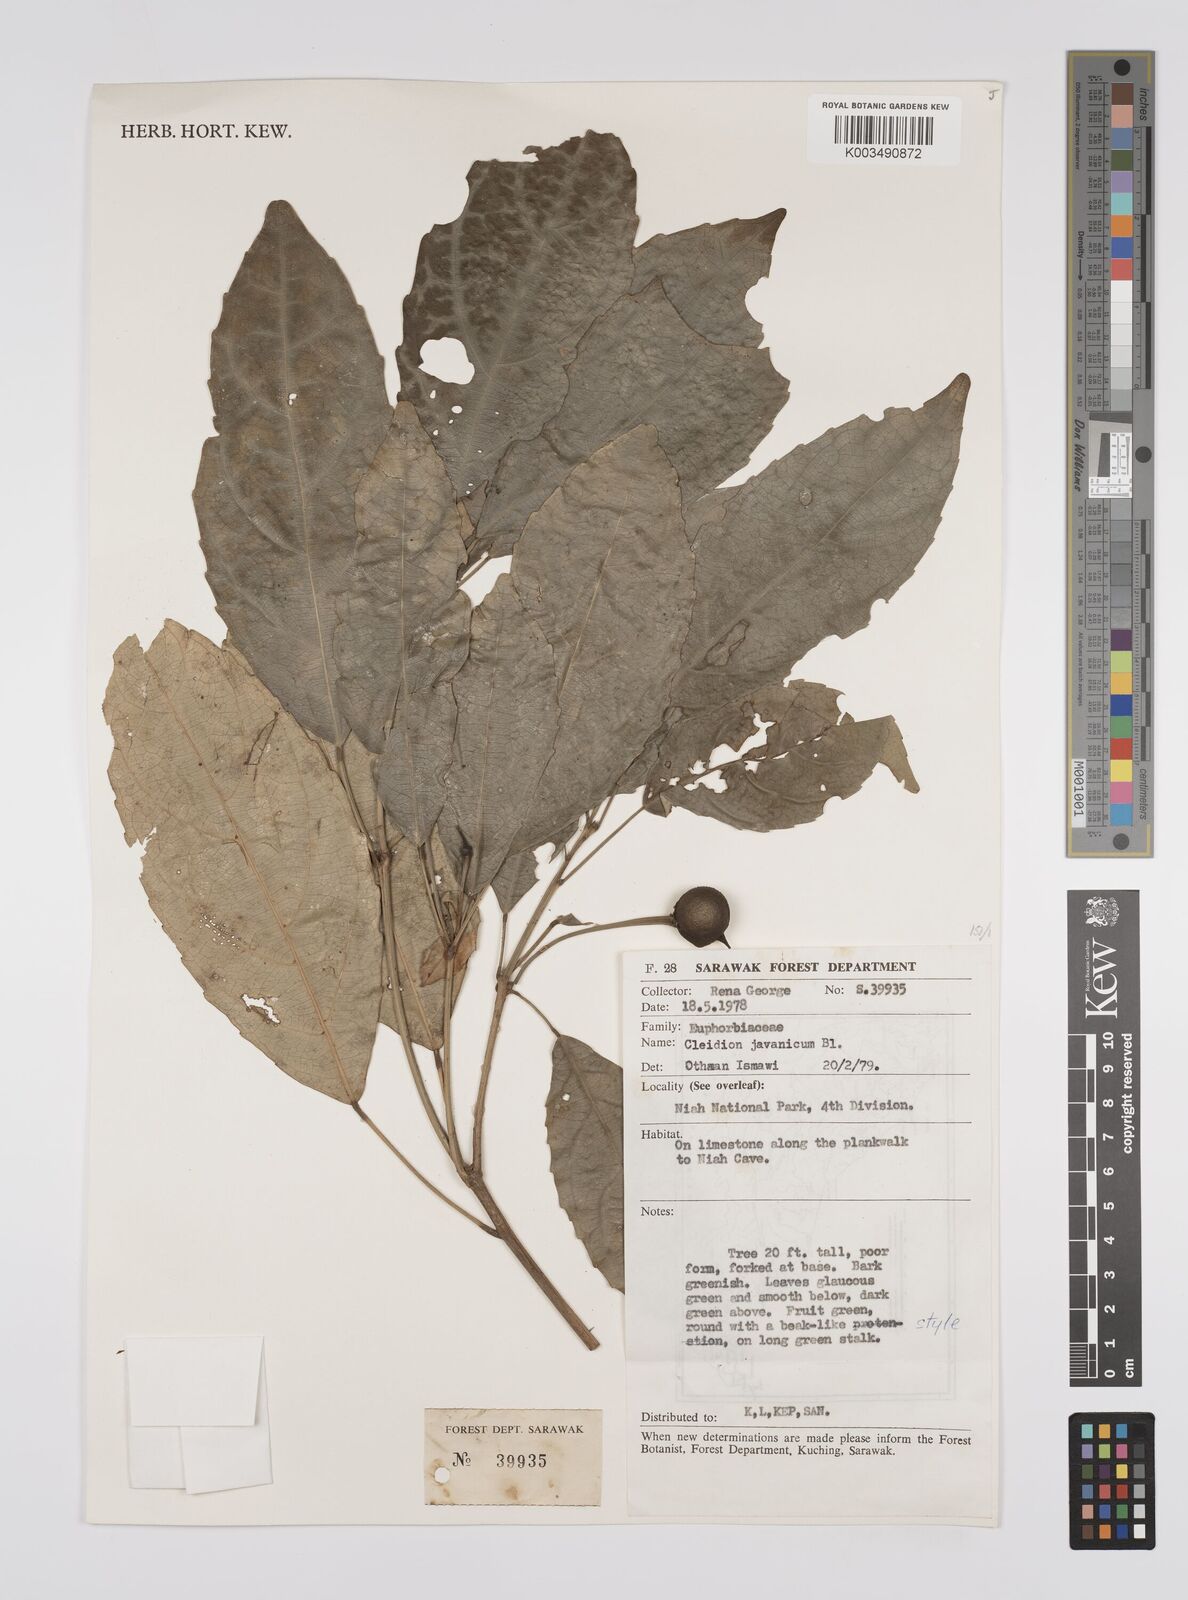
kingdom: Plantae
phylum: Tracheophyta
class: Magnoliopsida
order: Malpighiales
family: Euphorbiaceae
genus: Acalypha
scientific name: Acalypha spiciflora
